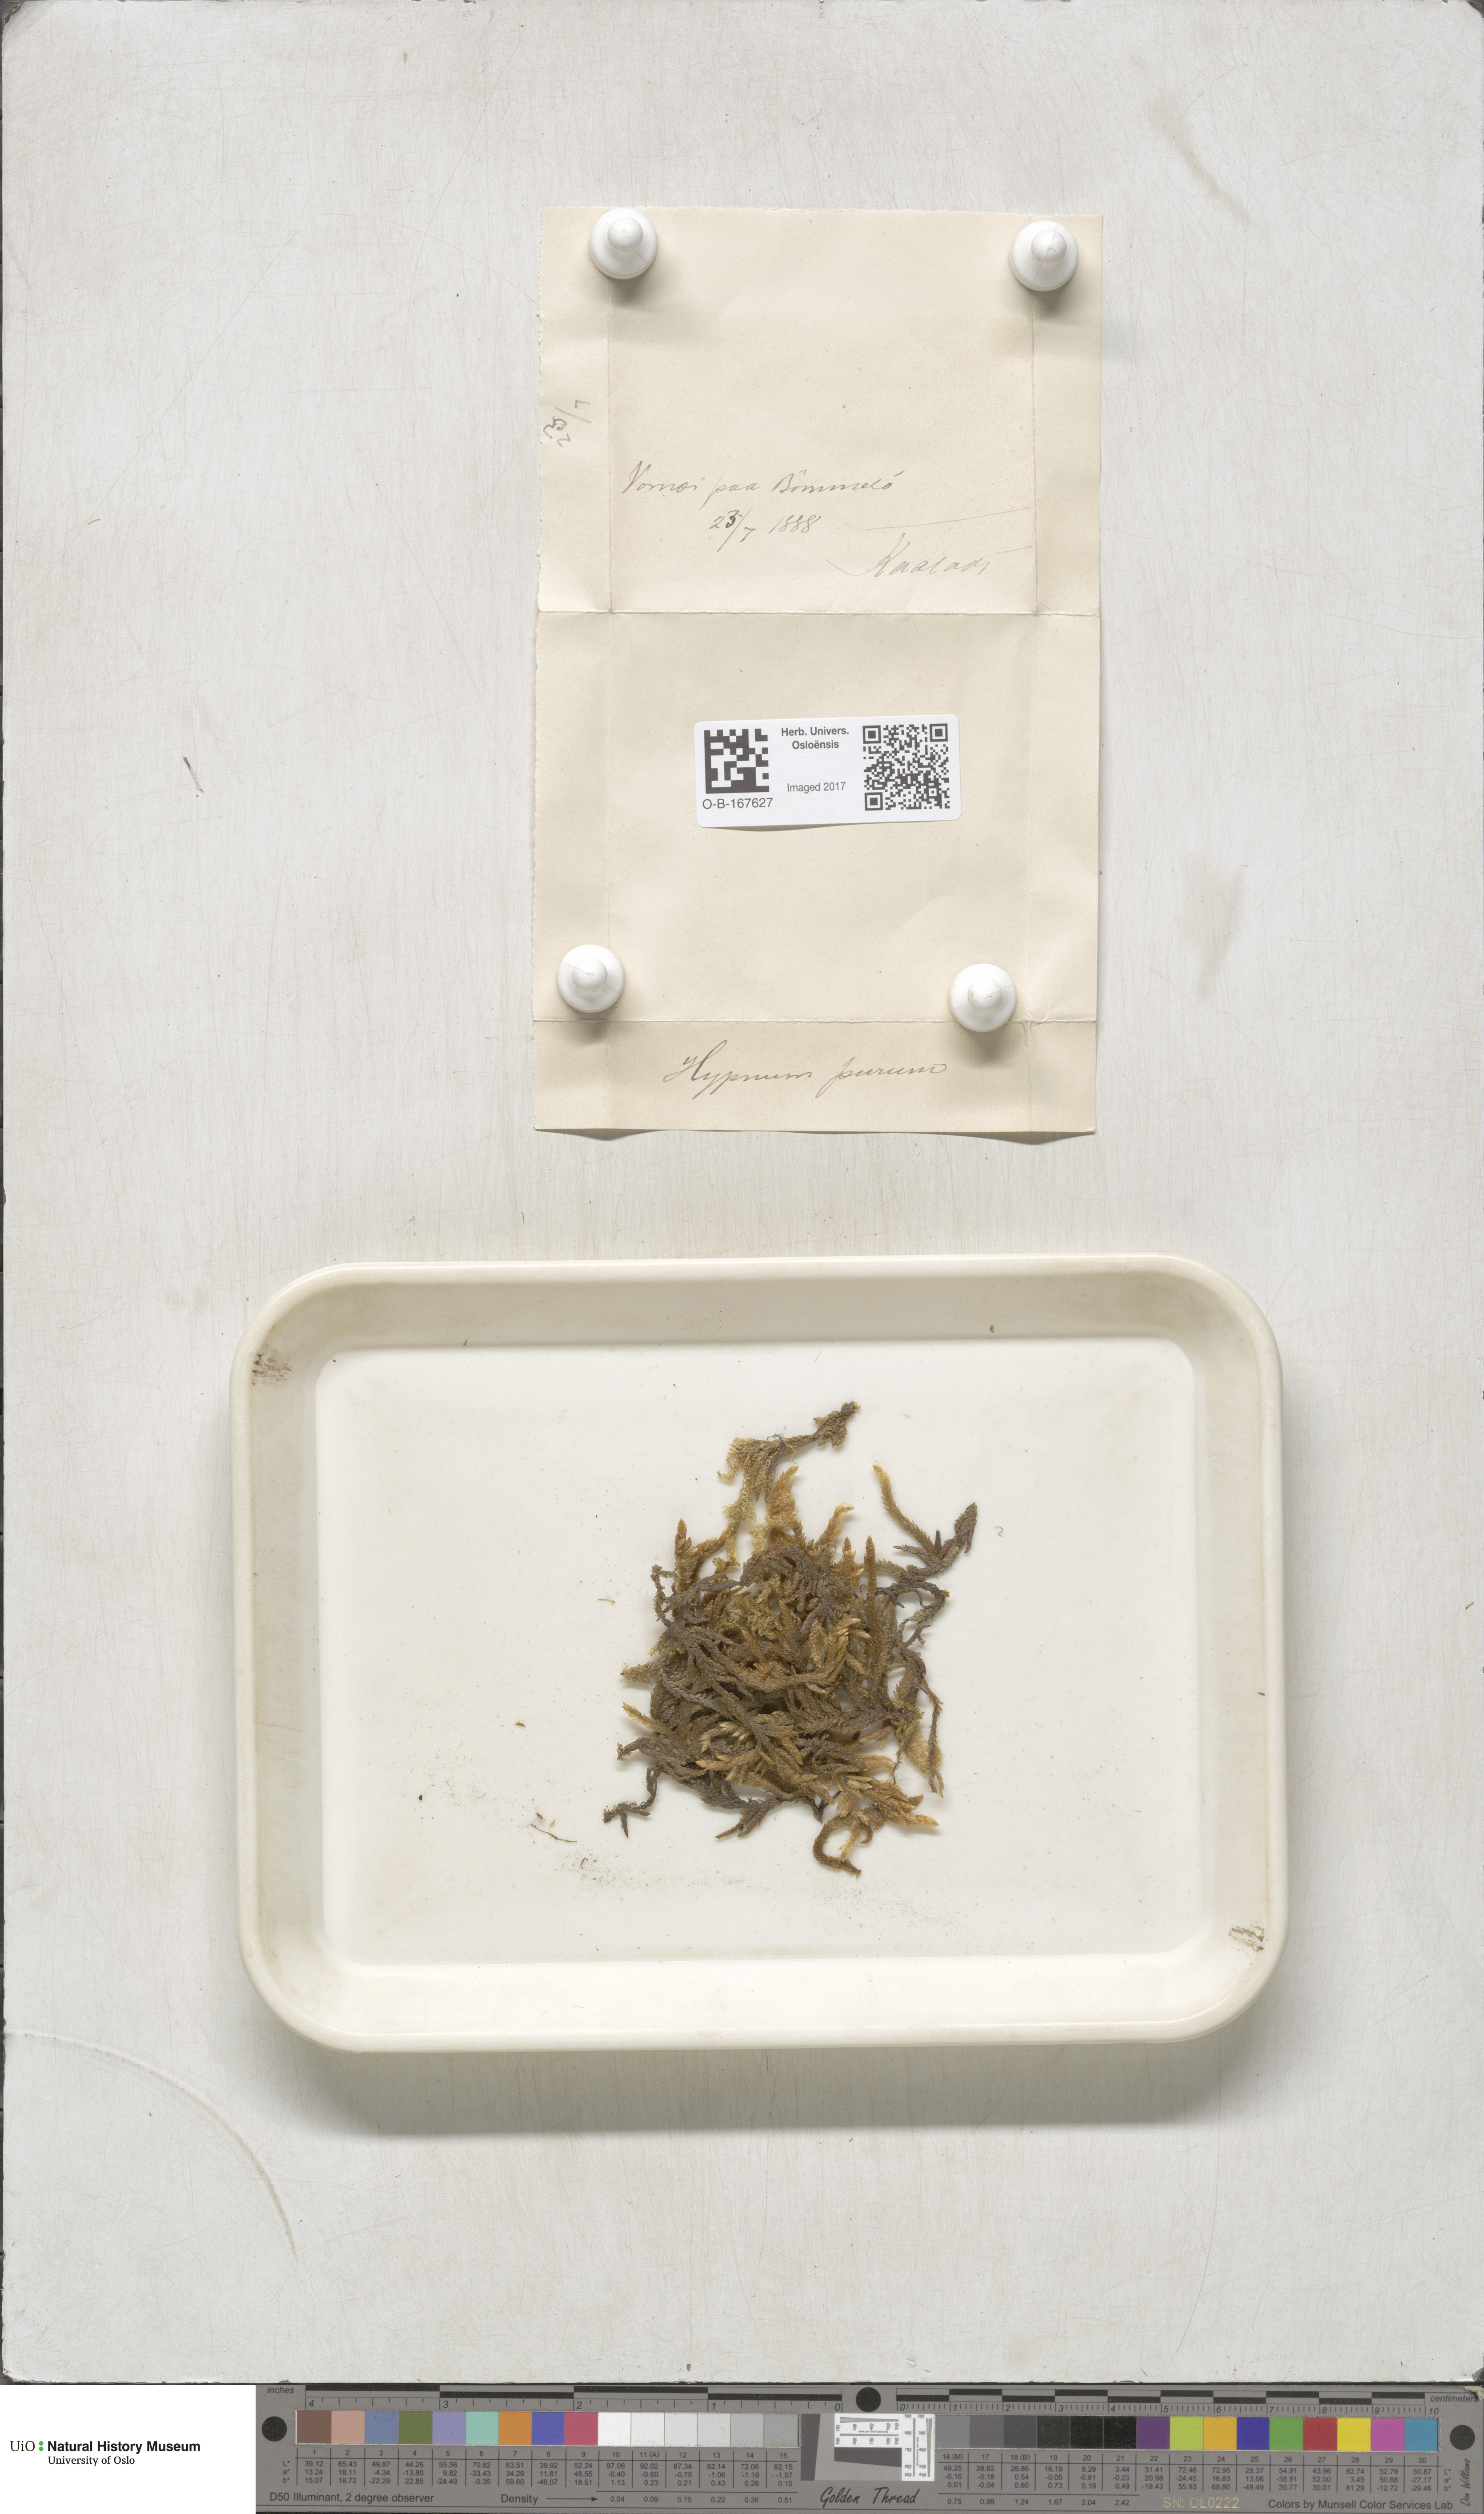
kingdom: Plantae
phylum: Bryophyta
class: Bryopsida
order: Hypnales
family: Brachytheciaceae
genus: Pseudoscleropodium
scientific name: Pseudoscleropodium purum
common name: Neat feather-moss
